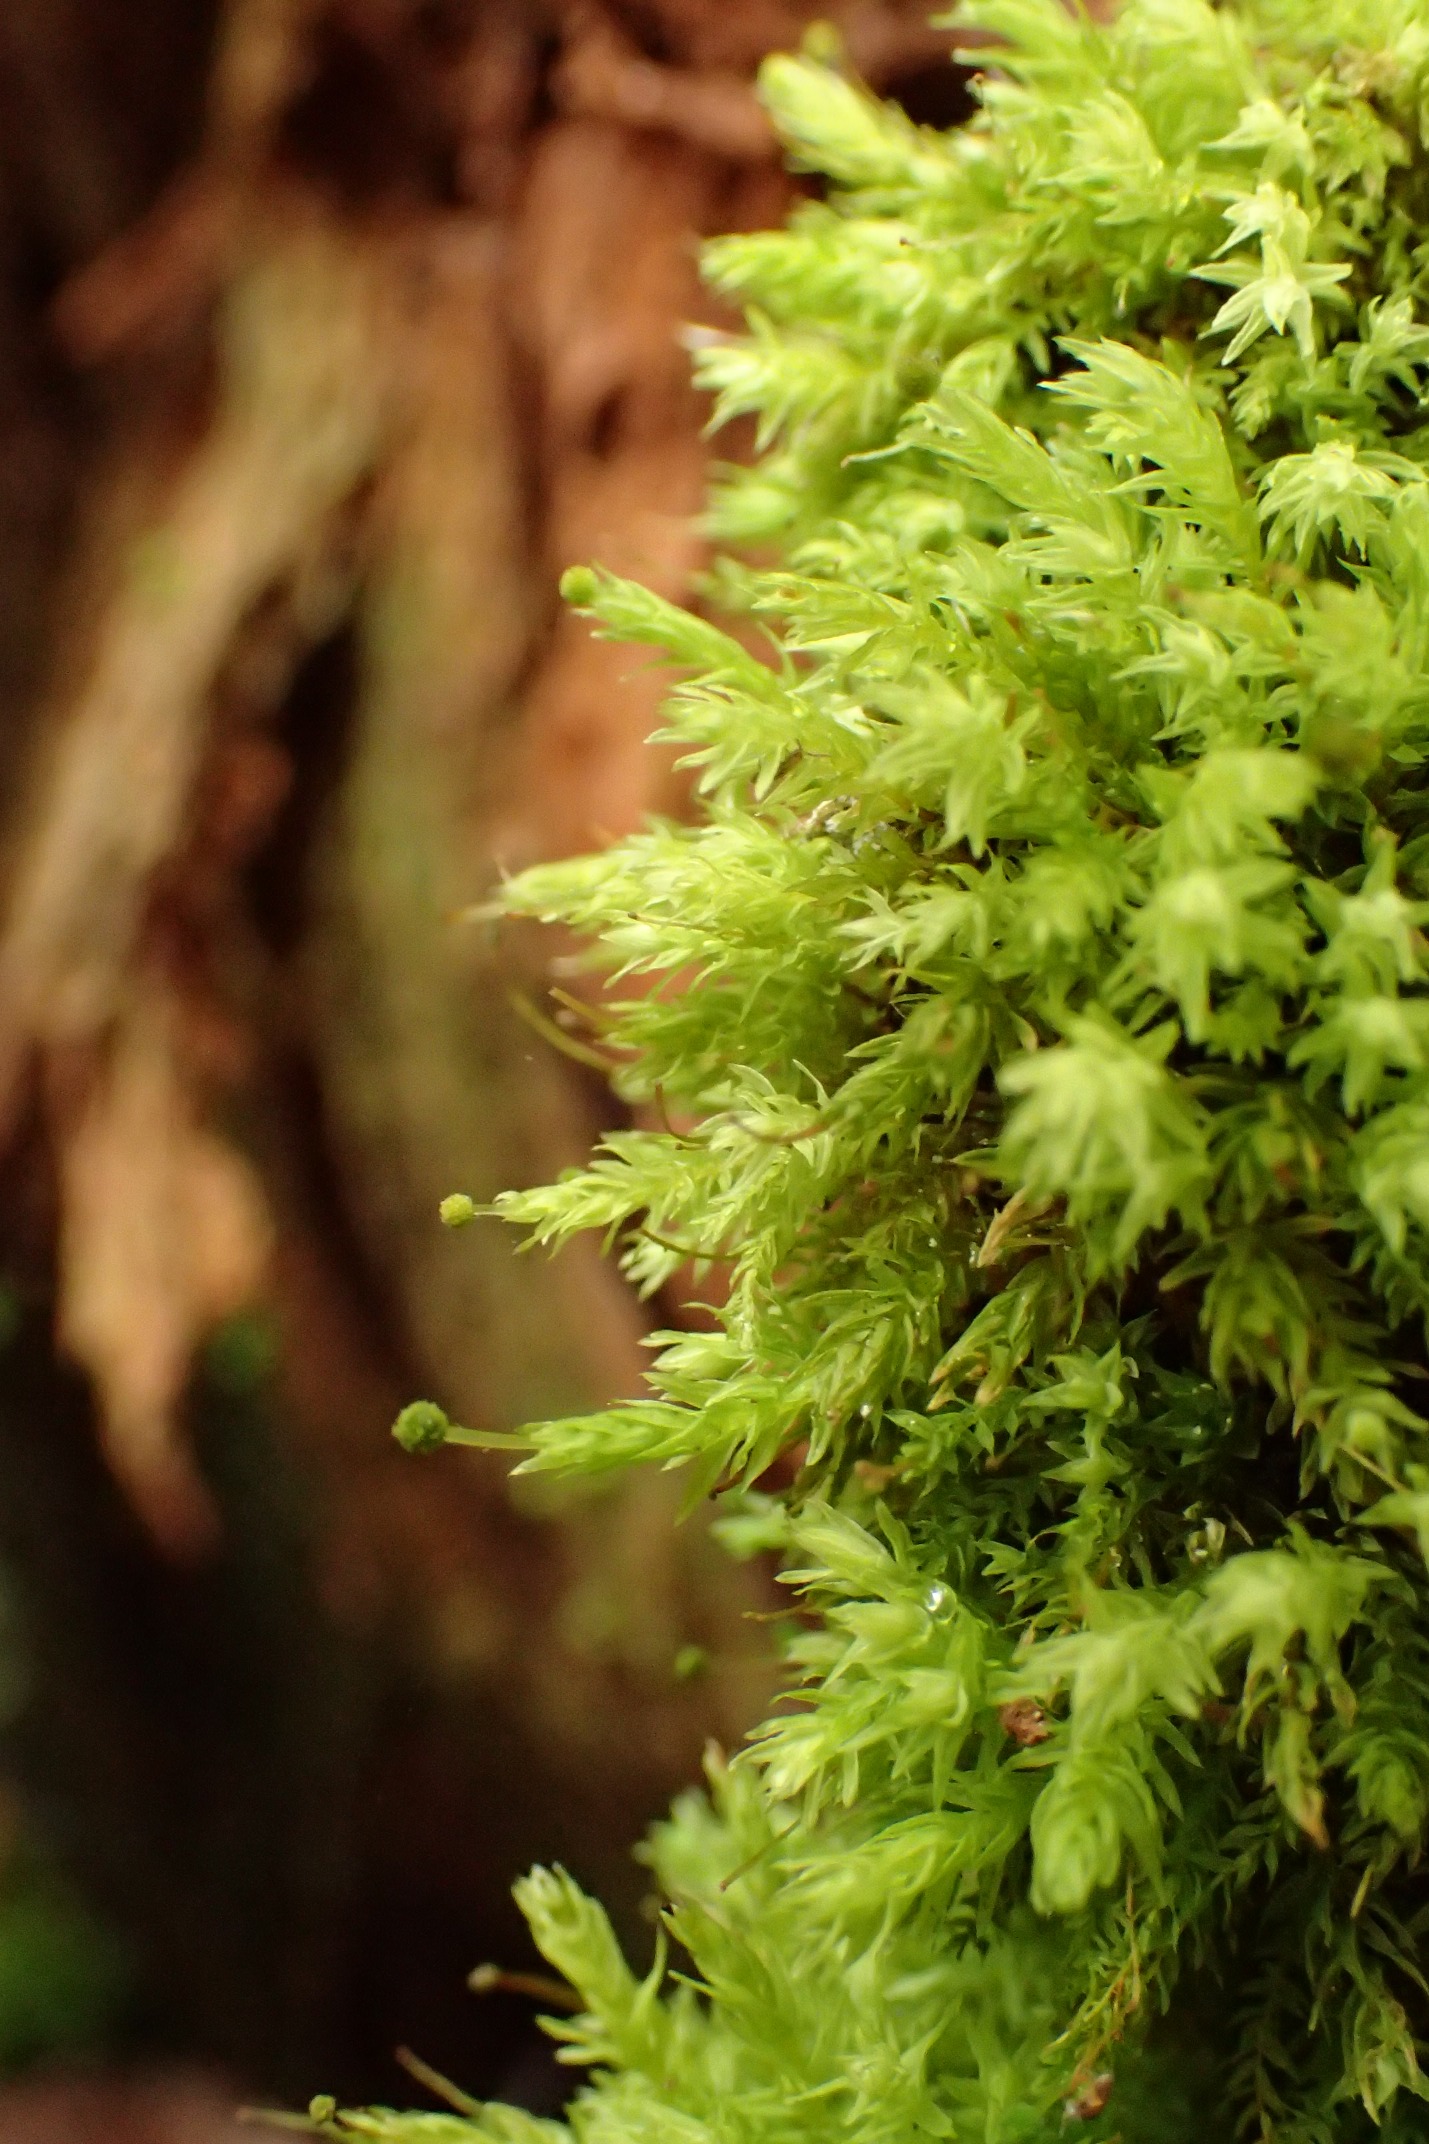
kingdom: Plantae
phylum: Bryophyta
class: Bryopsida
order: Aulacomniales
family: Aulacomniaceae
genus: Aulacomnium
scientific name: Aulacomnium androgynum
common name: Kugle-filtmos
